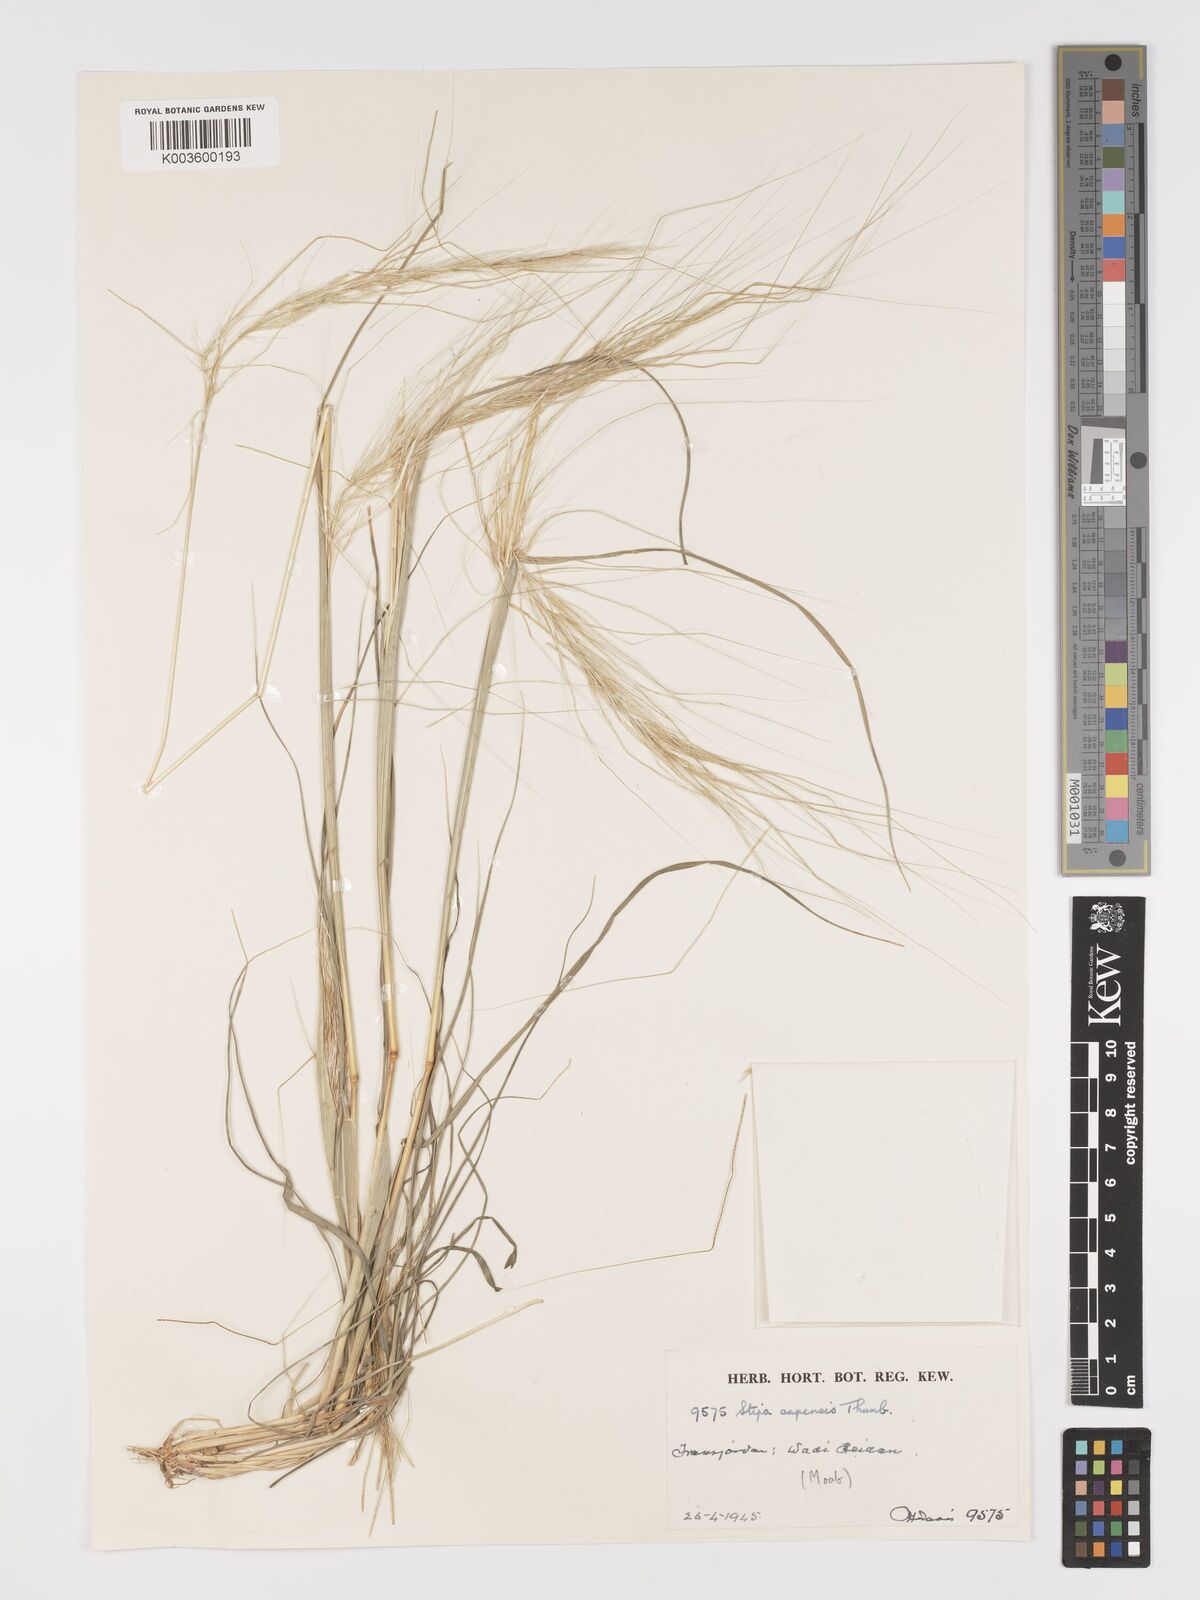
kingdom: Plantae
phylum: Tracheophyta
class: Liliopsida
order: Poales
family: Poaceae
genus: Stipellula
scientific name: Stipellula capensis
